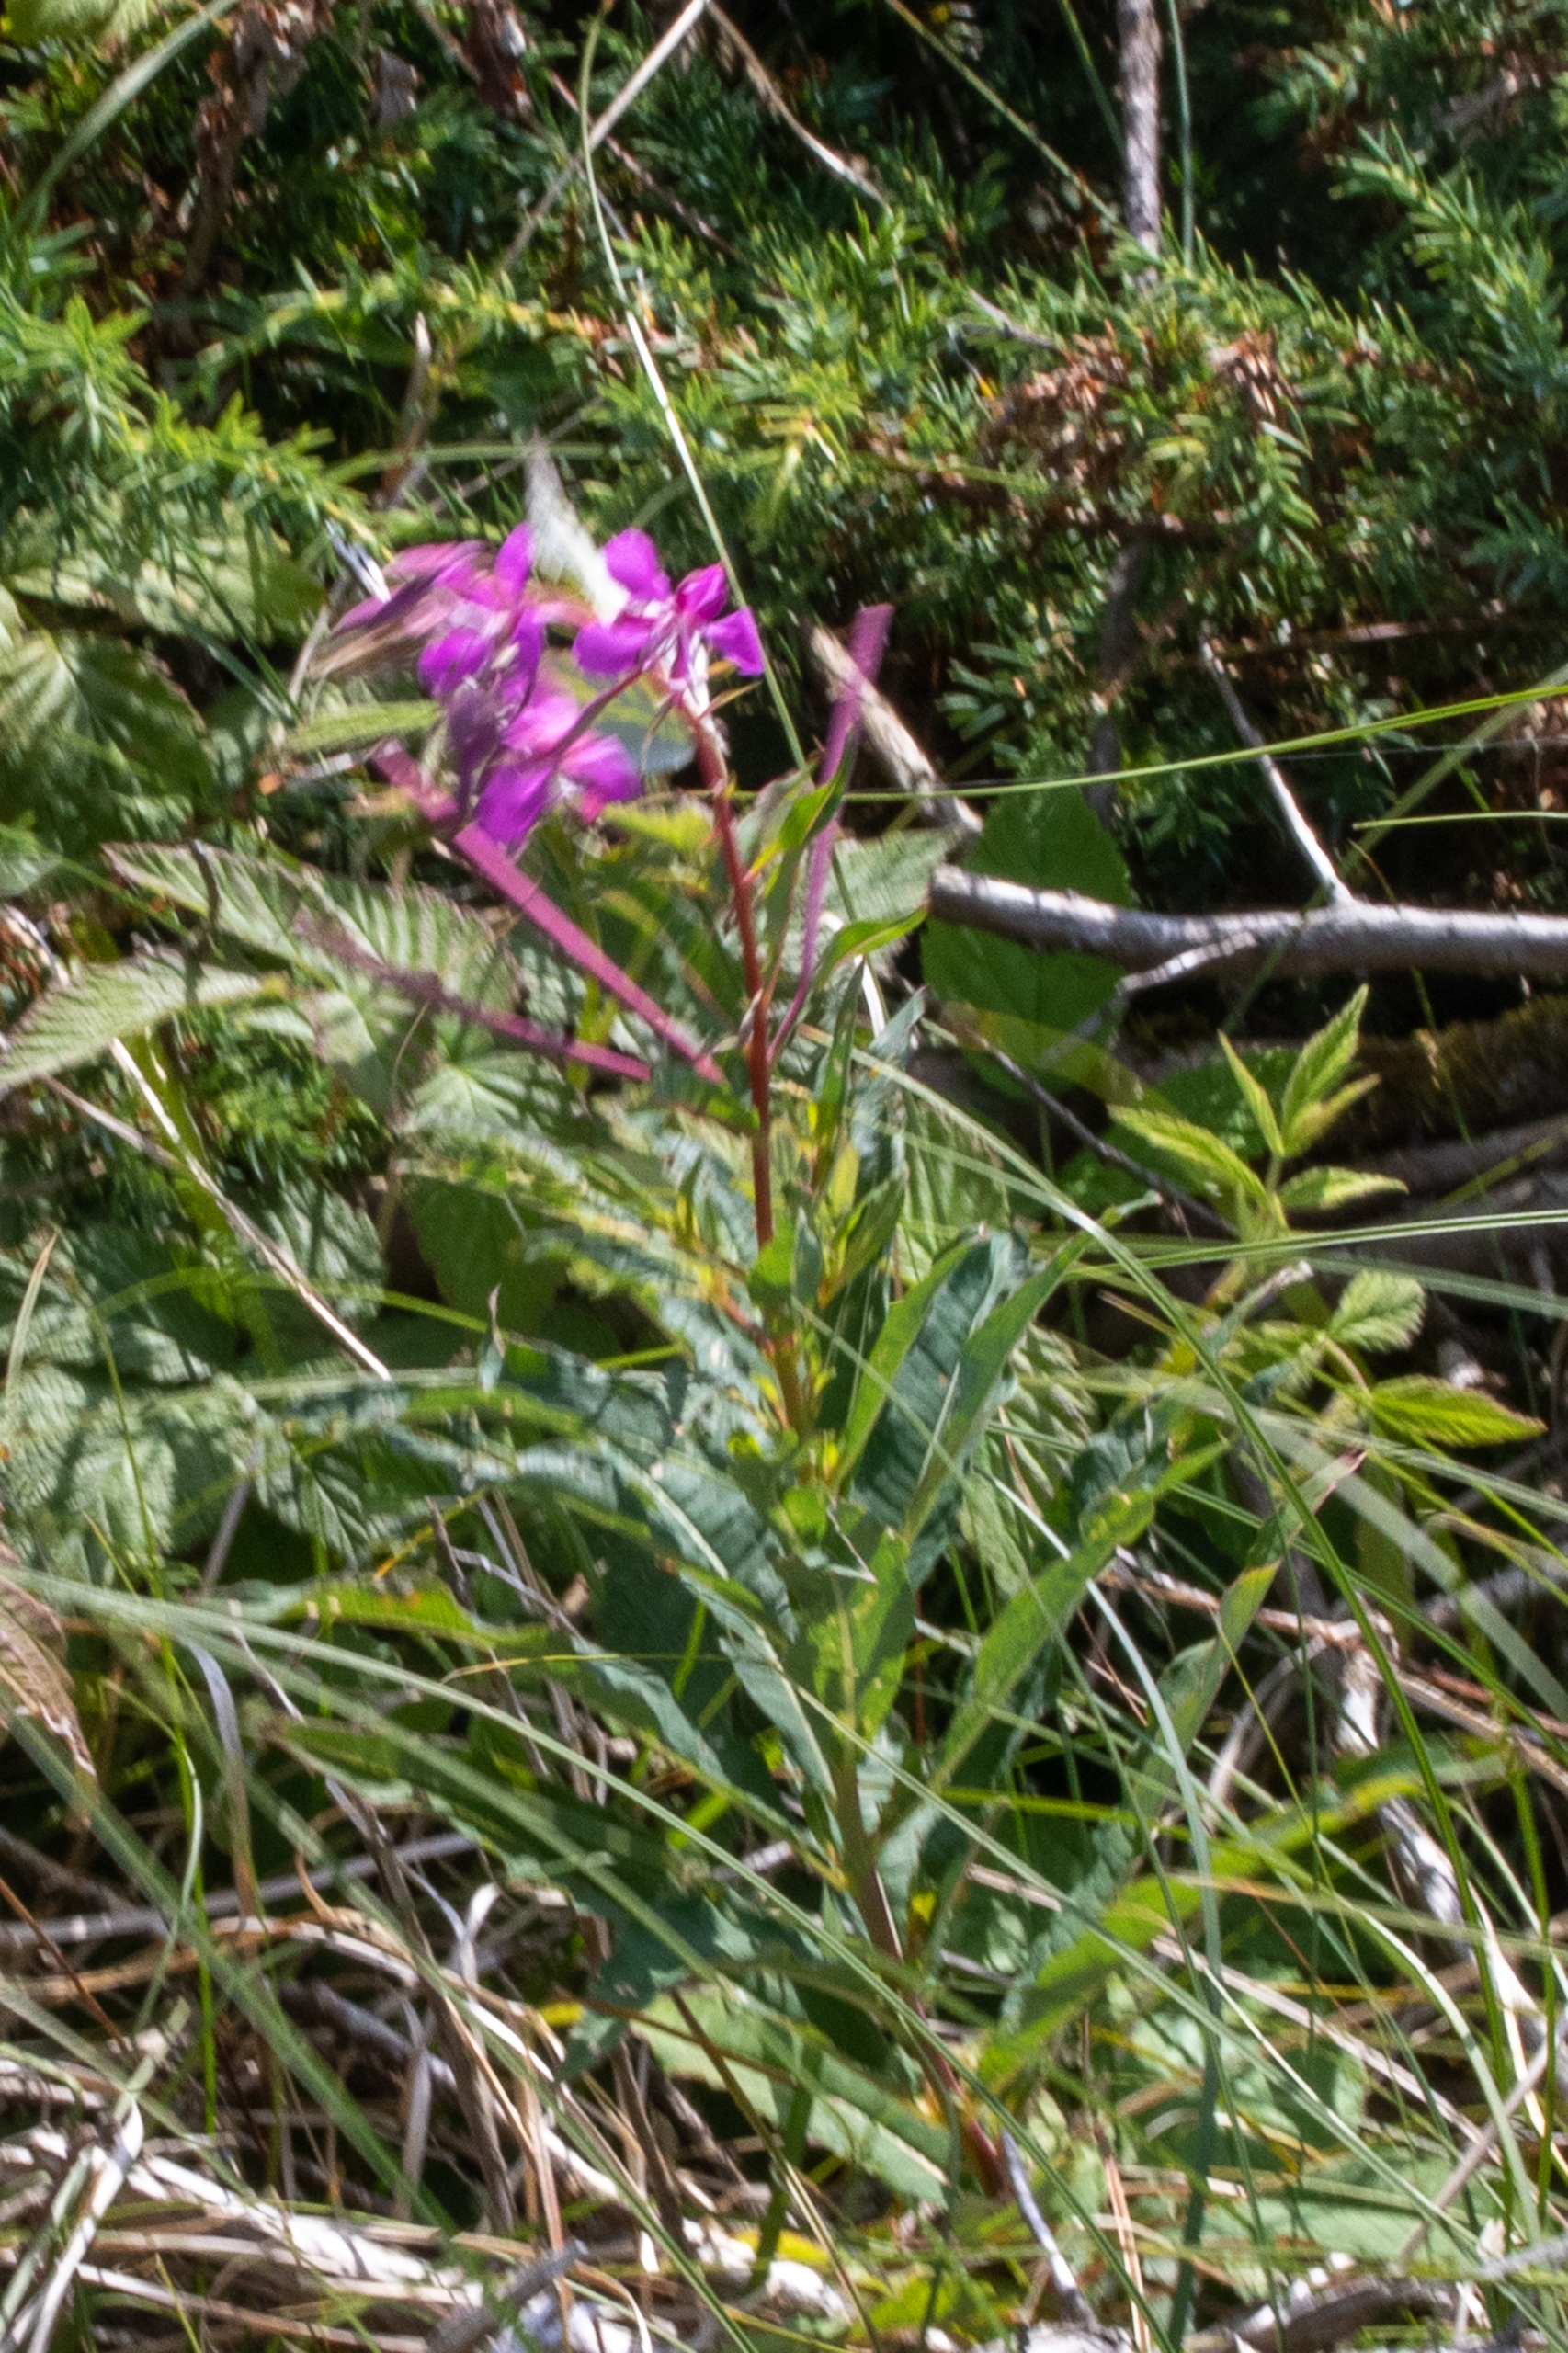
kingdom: Plantae
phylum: Tracheophyta
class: Magnoliopsida
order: Myrtales
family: Onagraceae
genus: Chamaenerion
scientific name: Chamaenerion angustifolium
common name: Gederams
